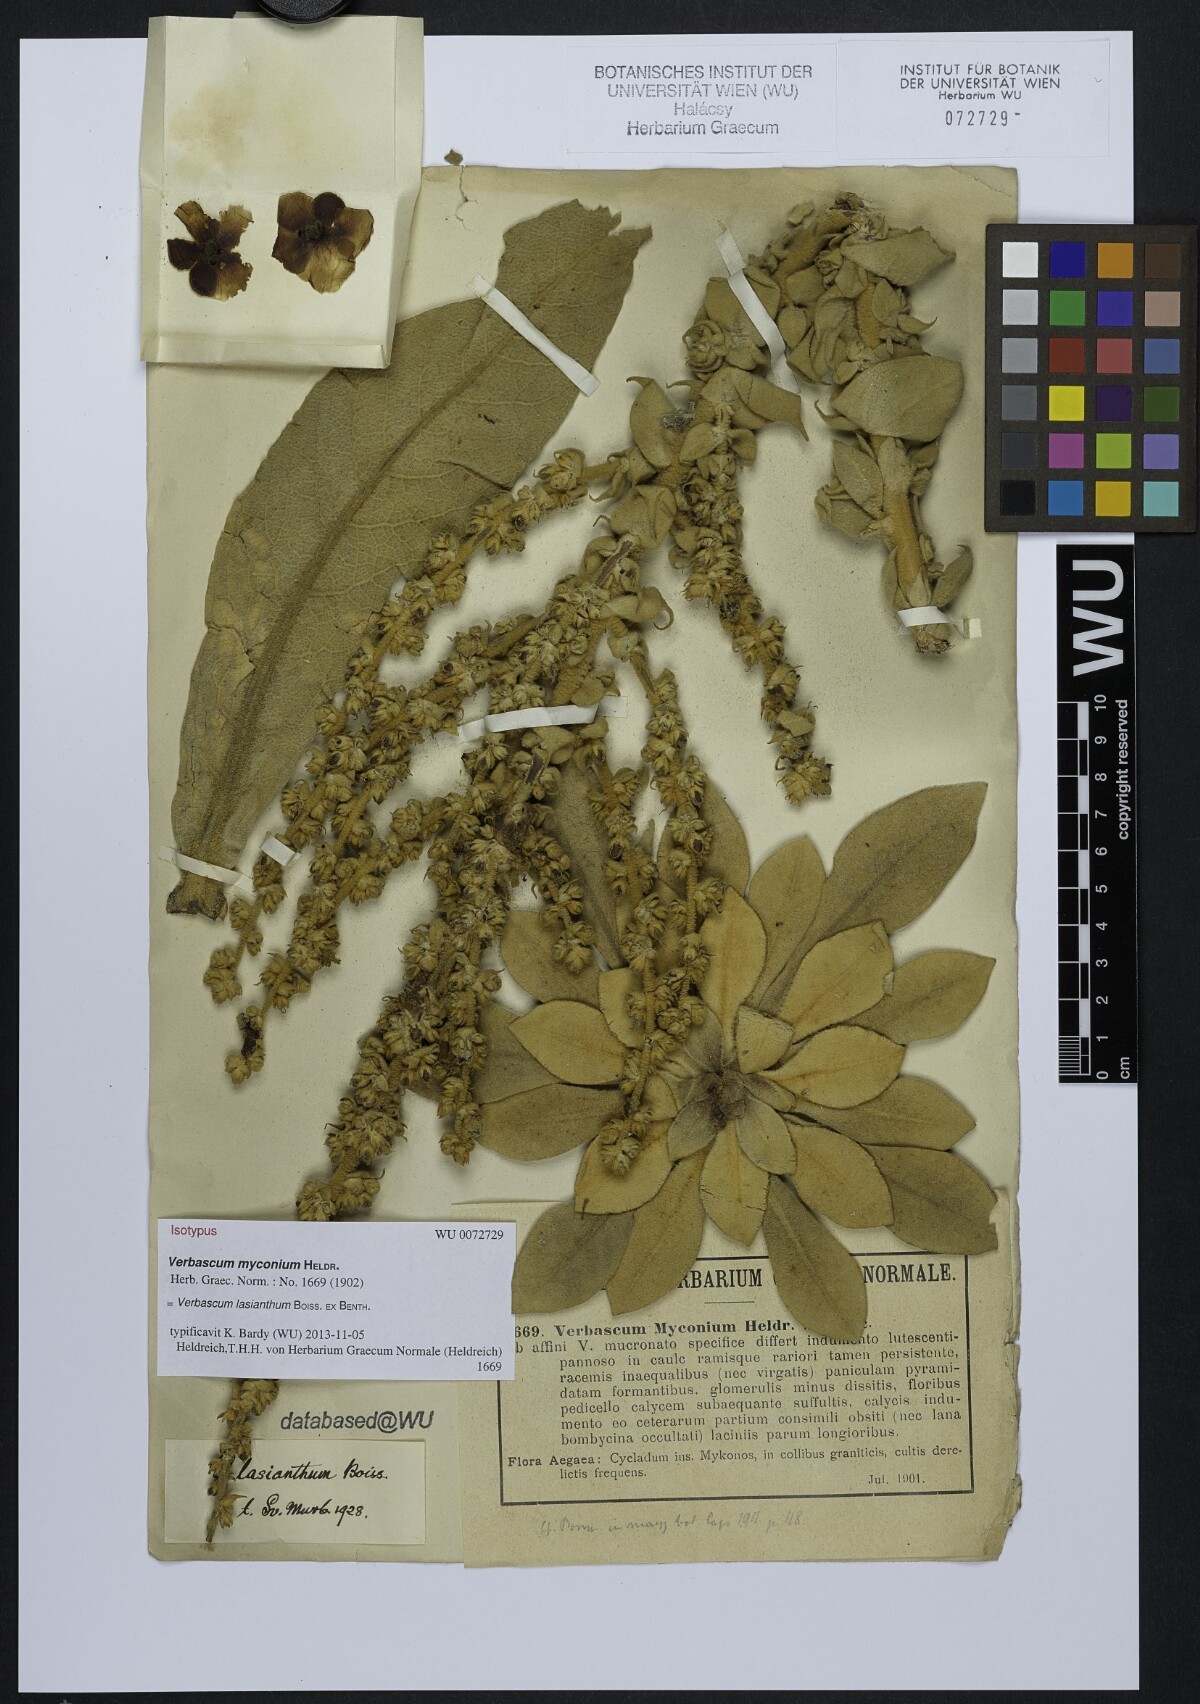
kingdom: Plantae
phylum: Tracheophyta
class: Magnoliopsida
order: Lamiales
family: Scrophulariaceae
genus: Verbascum
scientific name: Verbascum lasianthum
